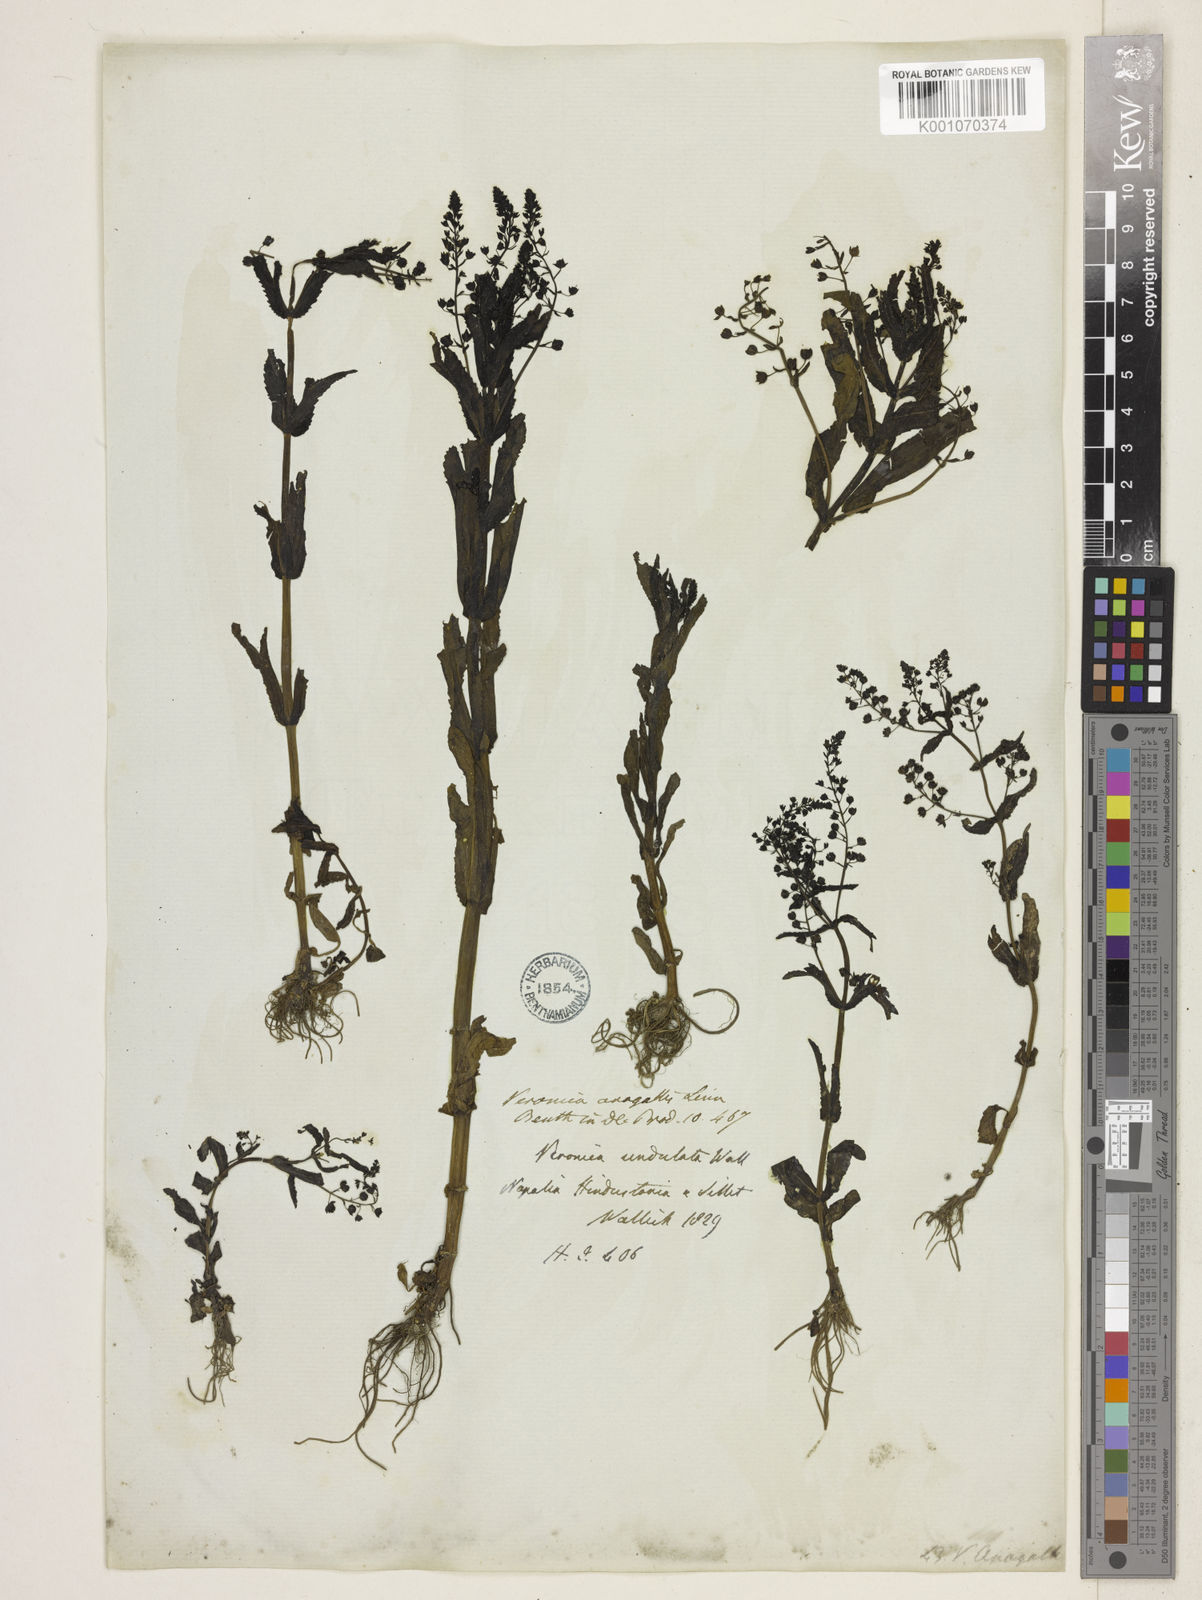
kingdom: Plantae
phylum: Tracheophyta
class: Magnoliopsida
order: Lamiales
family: Plantaginaceae
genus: Veronica
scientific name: Veronica undulata
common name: Undulate speedwell
